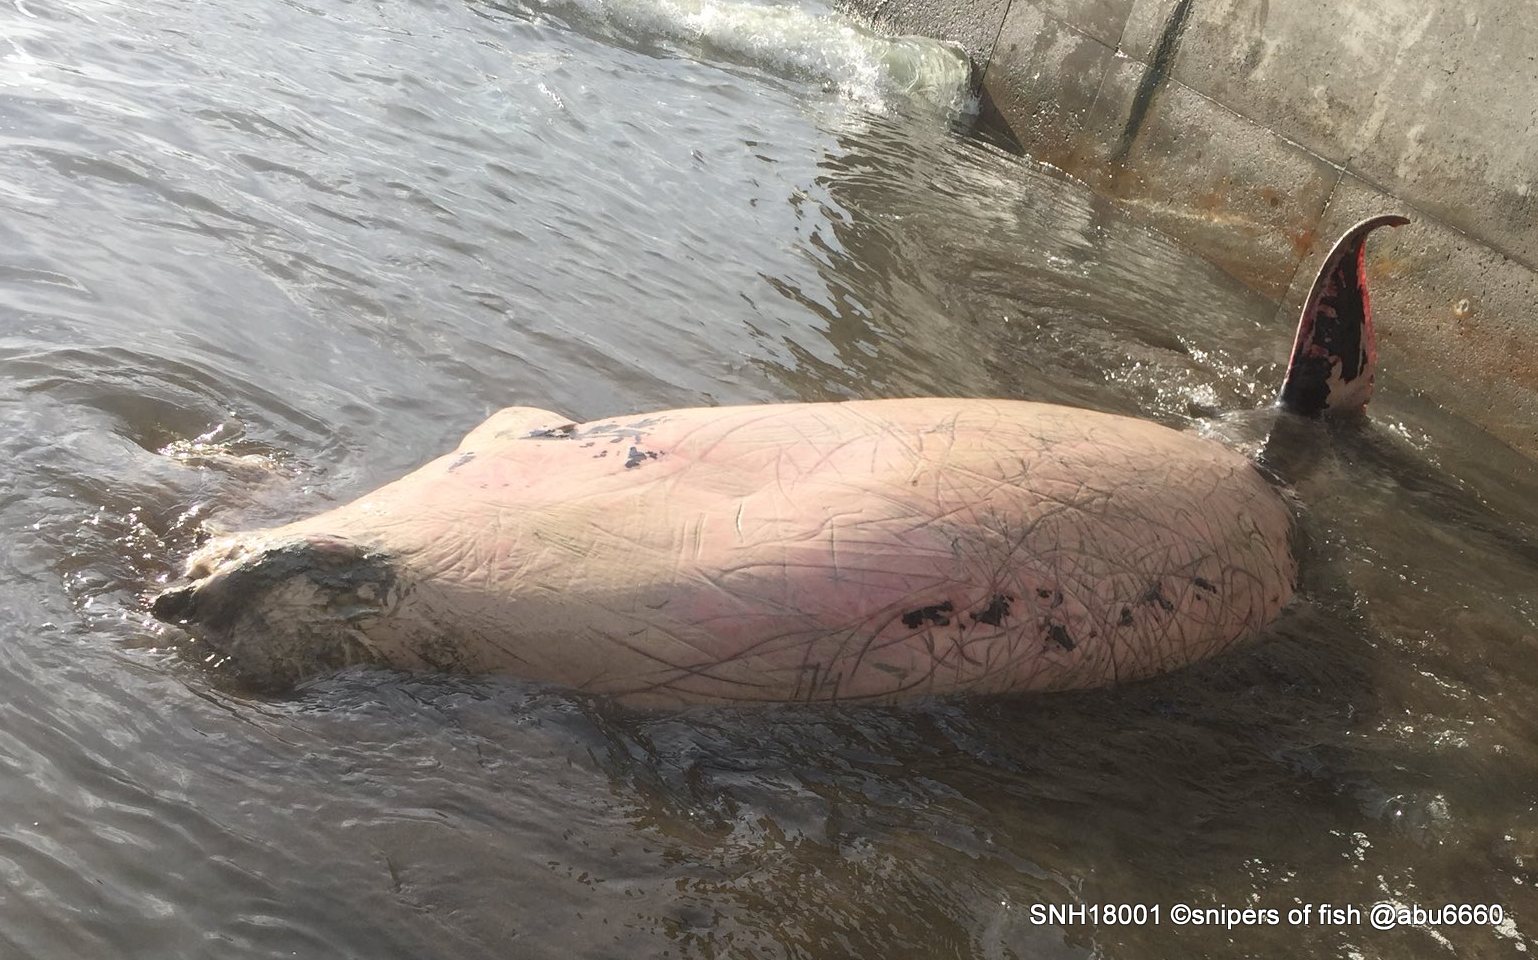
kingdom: Animalia
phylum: Chordata
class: Mammalia
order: Cetacea
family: Hyperoodontidae
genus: Mesoplodon
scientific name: Mesoplodon stejnegeri
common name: Stejneger's beaked whale
